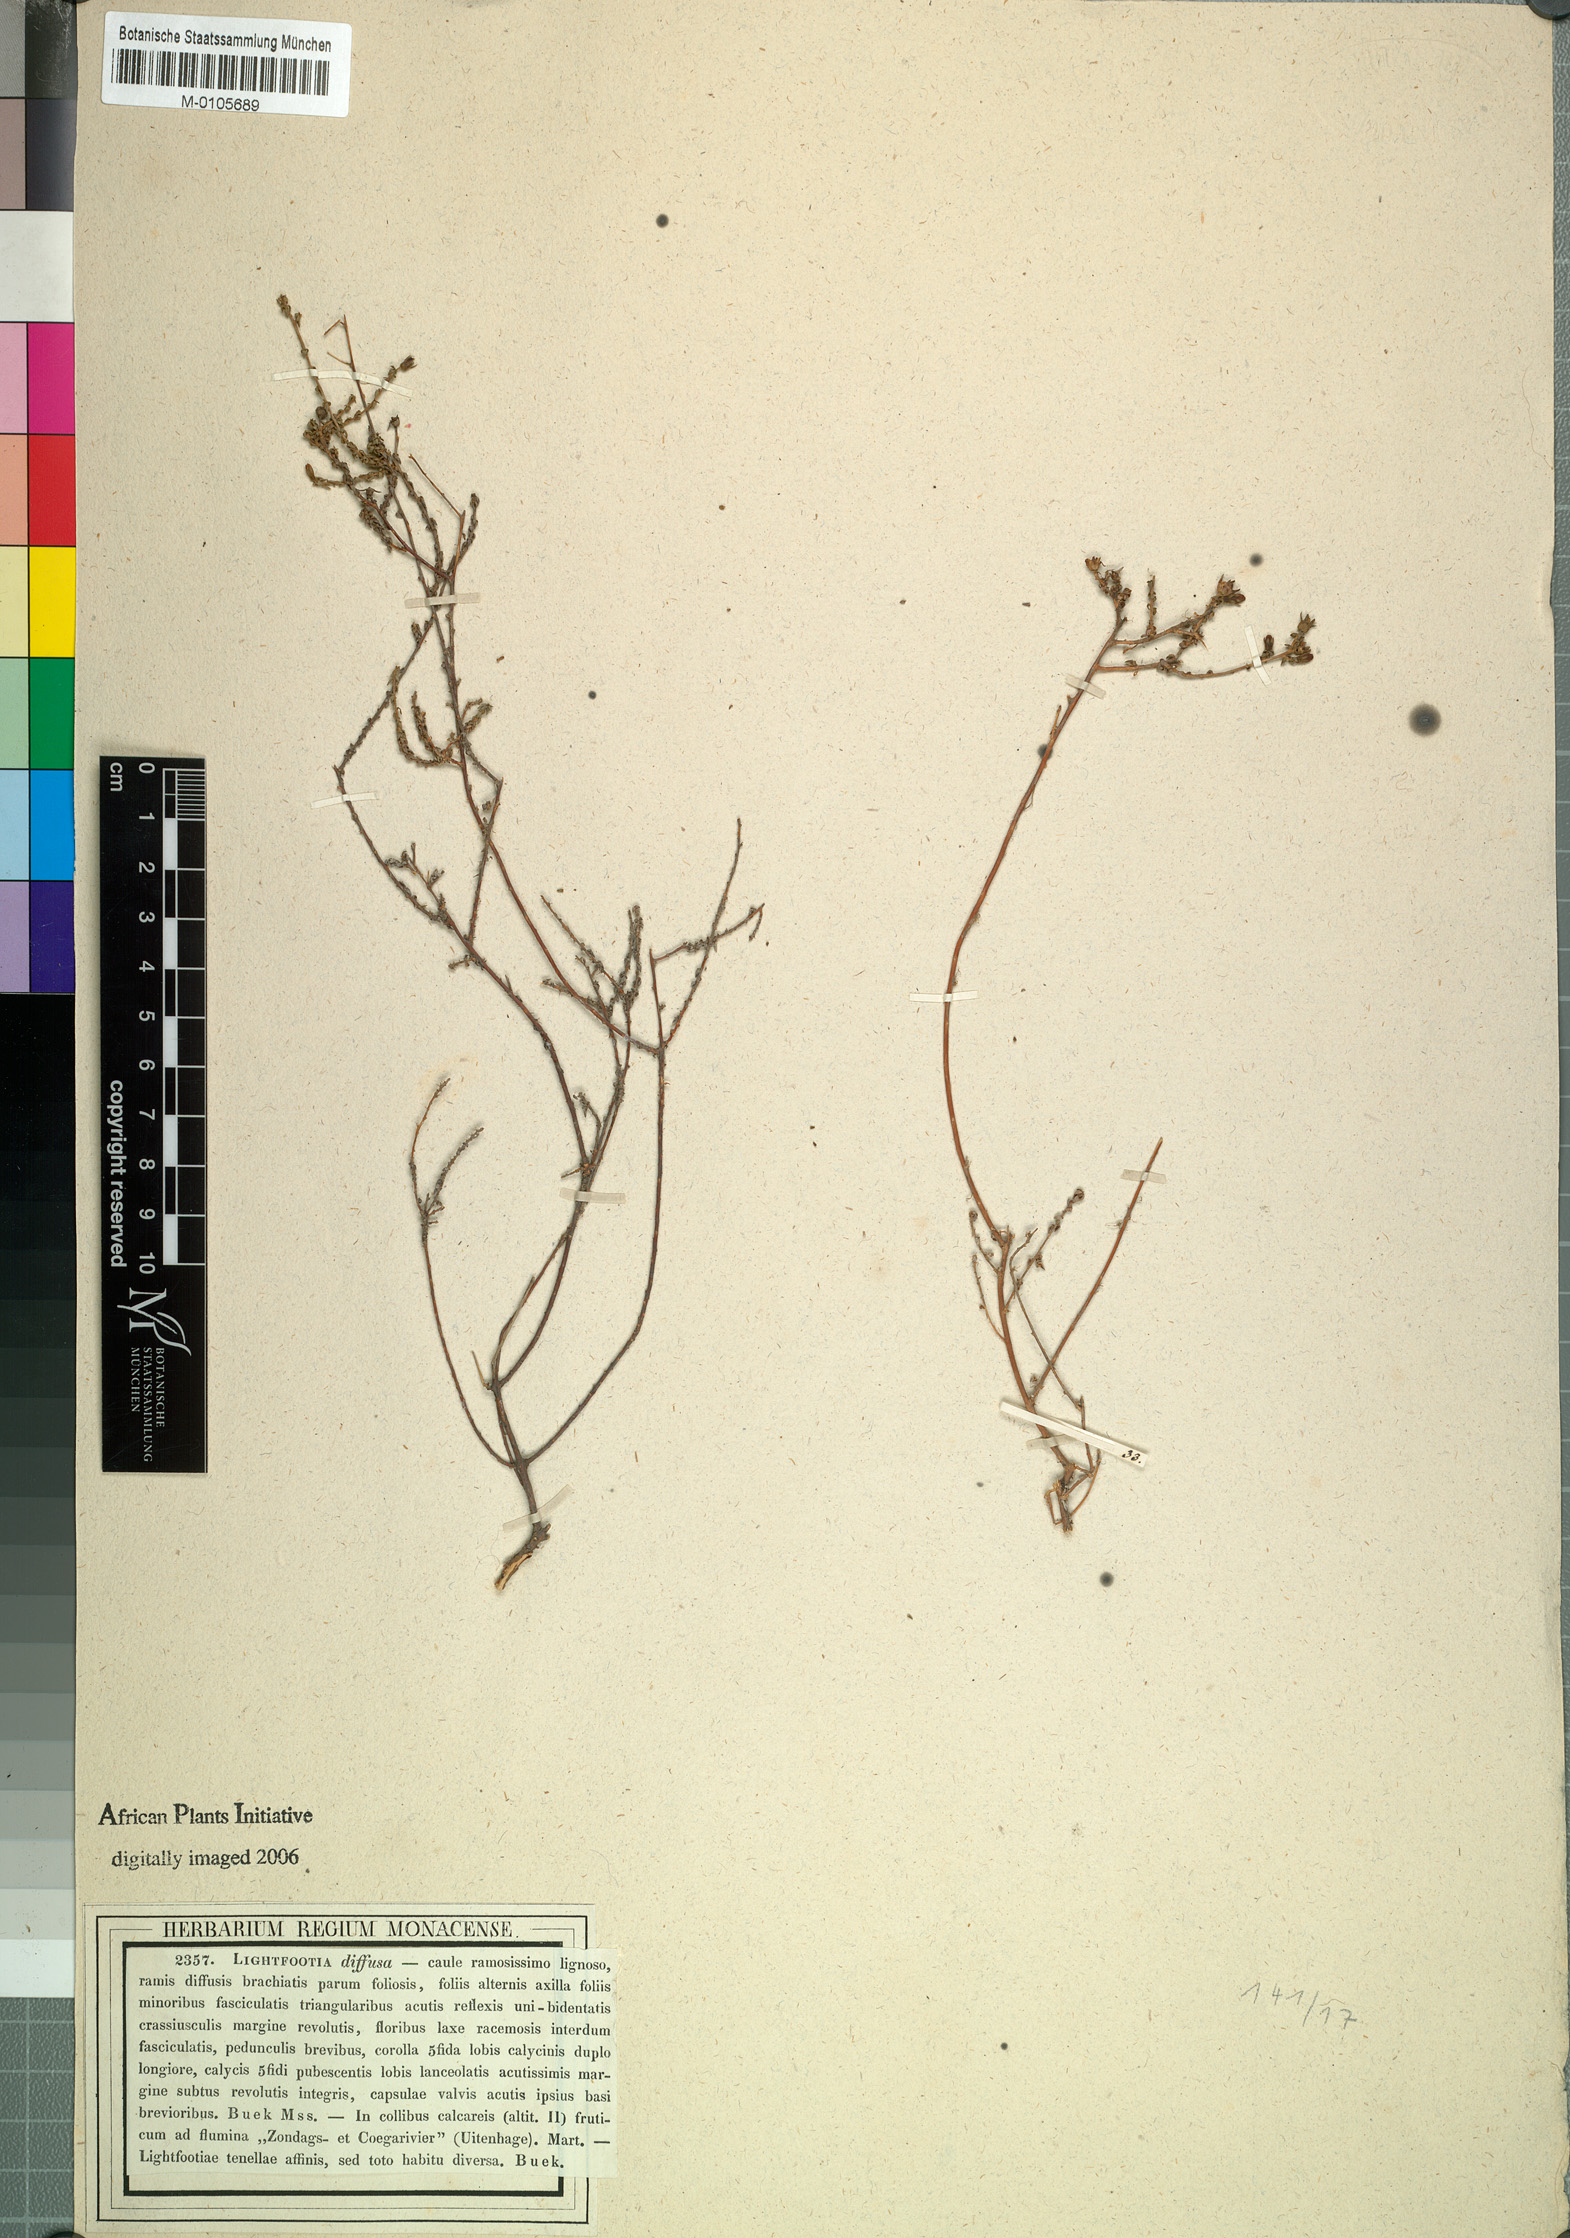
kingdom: Plantae
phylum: Tracheophyta
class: Magnoliopsida
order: Asterales
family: Campanulaceae
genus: Wahlenbergia
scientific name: Wahlenbergia tenella
